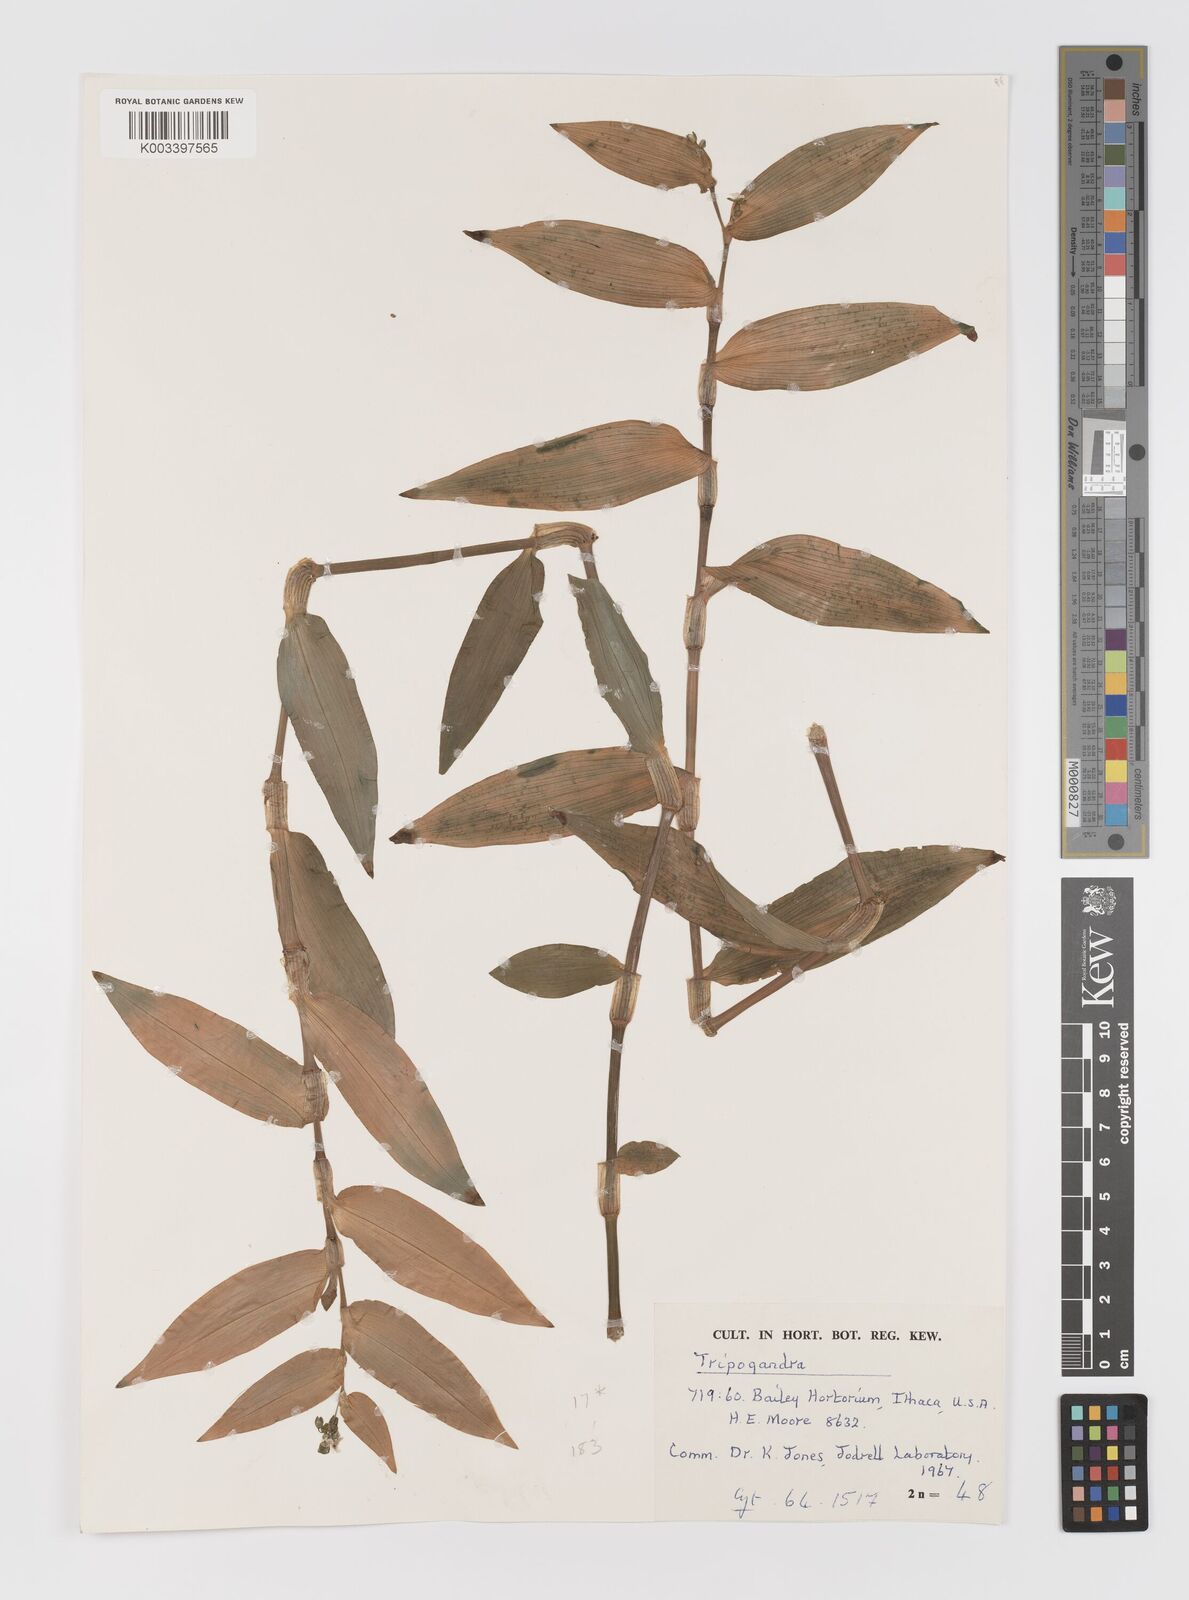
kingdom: Plantae
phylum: Tracheophyta
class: Liliopsida
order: Commelinales
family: Commelinaceae
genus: Callisia
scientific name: Callisia serrulata
